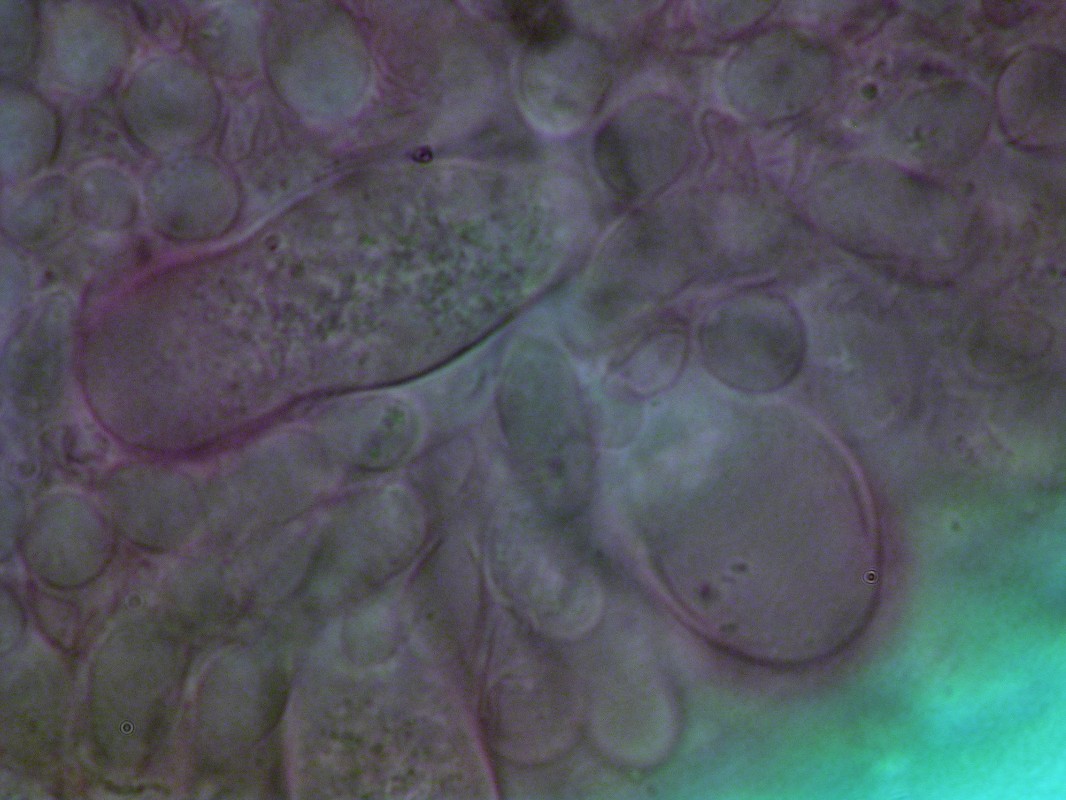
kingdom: Fungi
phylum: Basidiomycota
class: Agaricomycetes
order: Agaricales
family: Physalacriaceae
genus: Strobilurus
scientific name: Strobilurus stephanocystis
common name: fyrre-koglehat
